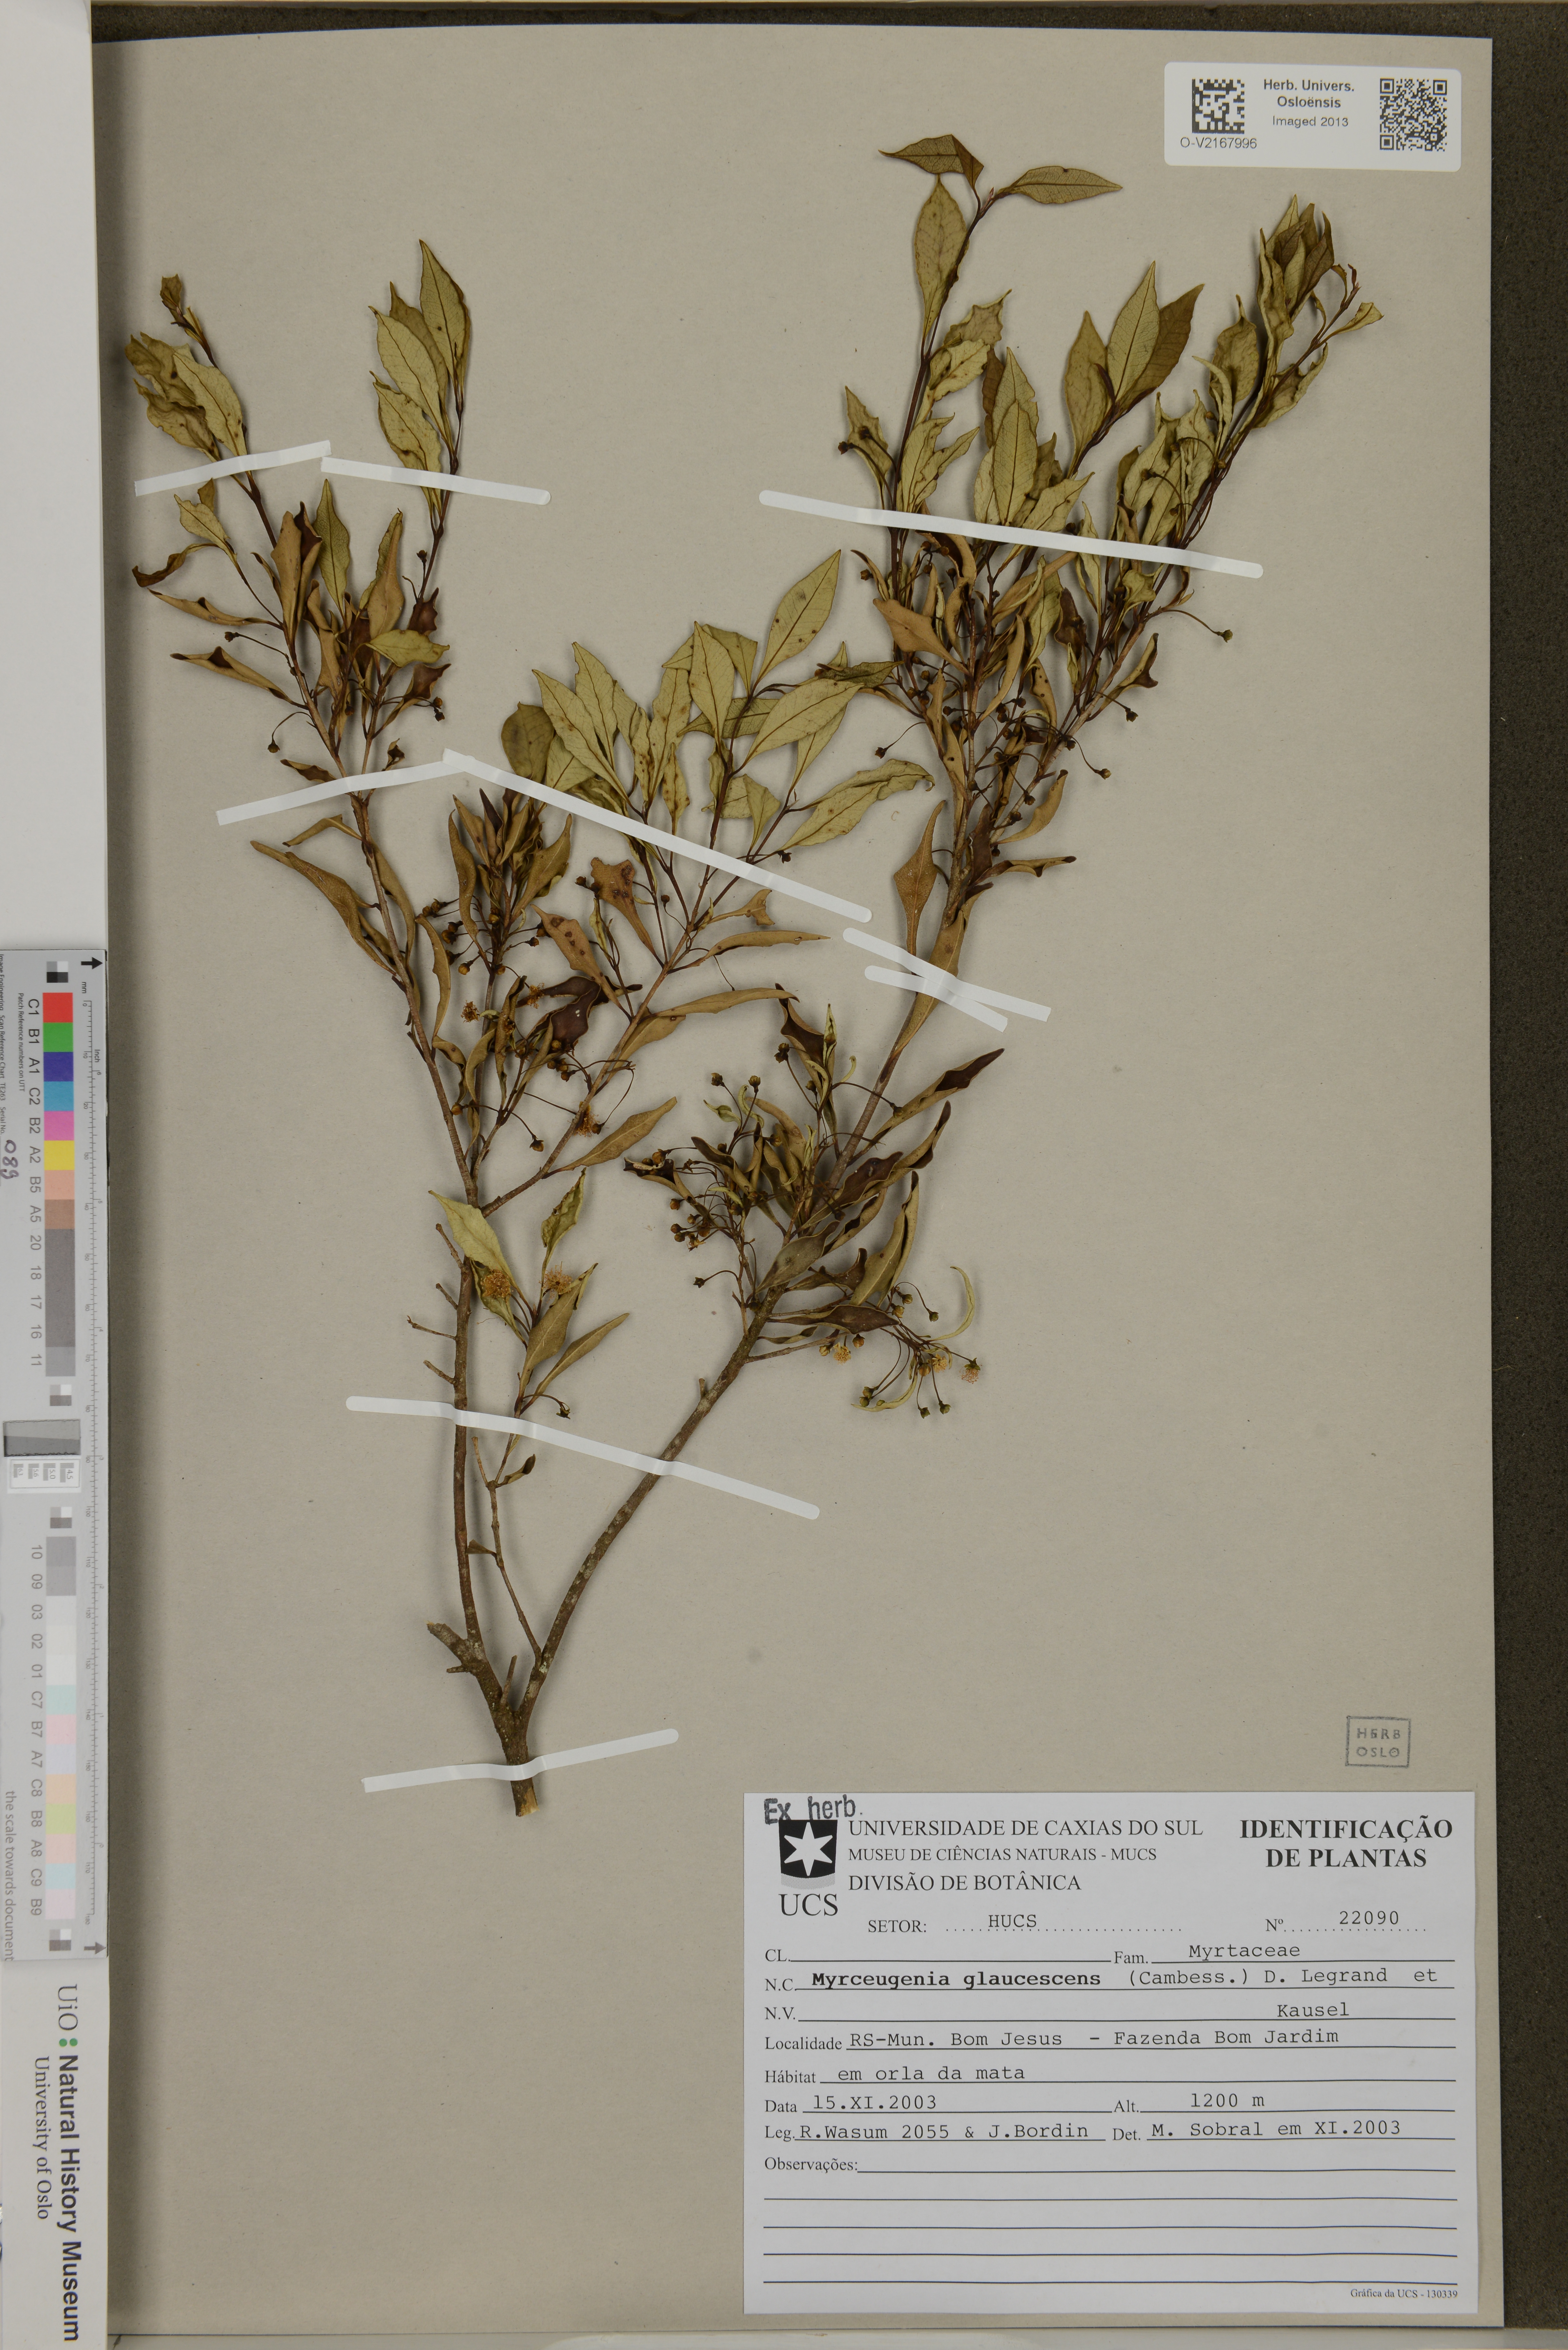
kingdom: Plantae
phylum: Tracheophyta
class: Magnoliopsida
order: Myrtales
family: Myrtaceae
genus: Myrceugenia
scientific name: Myrceugenia glaucescens
